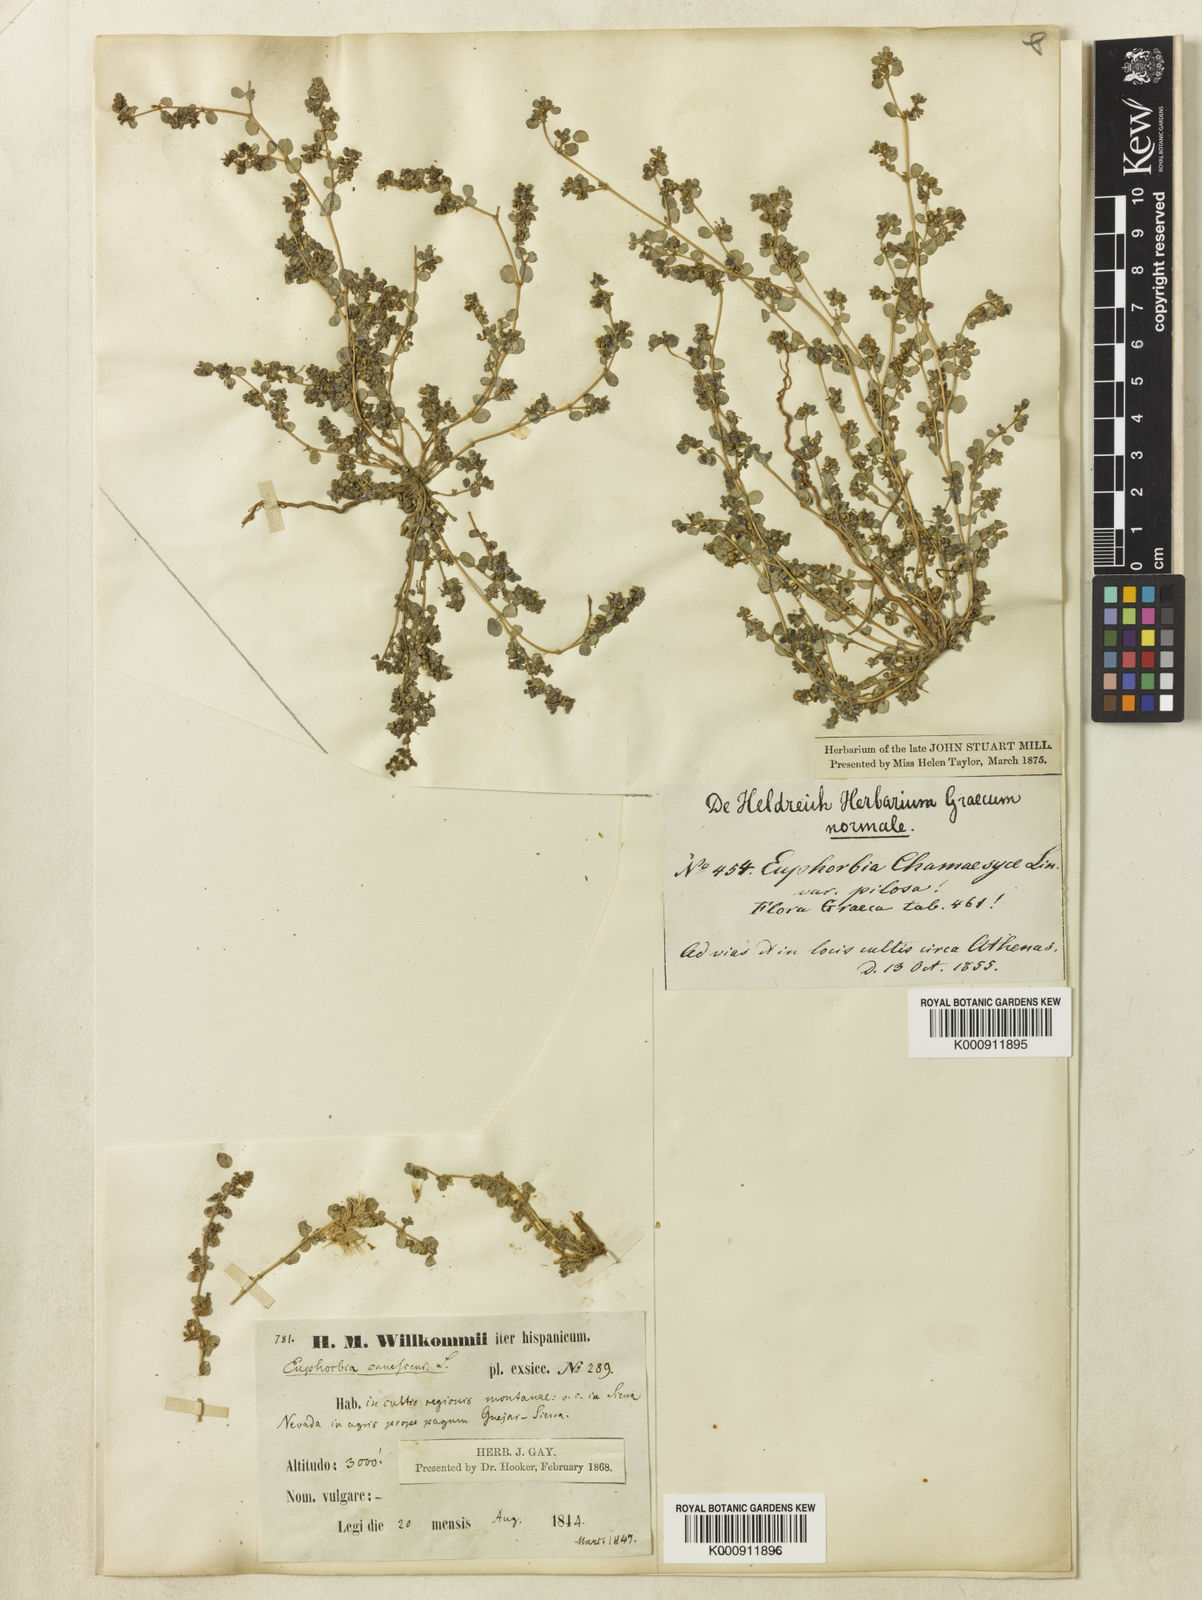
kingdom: Plantae
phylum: Tracheophyta
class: Magnoliopsida
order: Malpighiales
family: Euphorbiaceae
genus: Euphorbia
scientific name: Euphorbia chamaesyce
